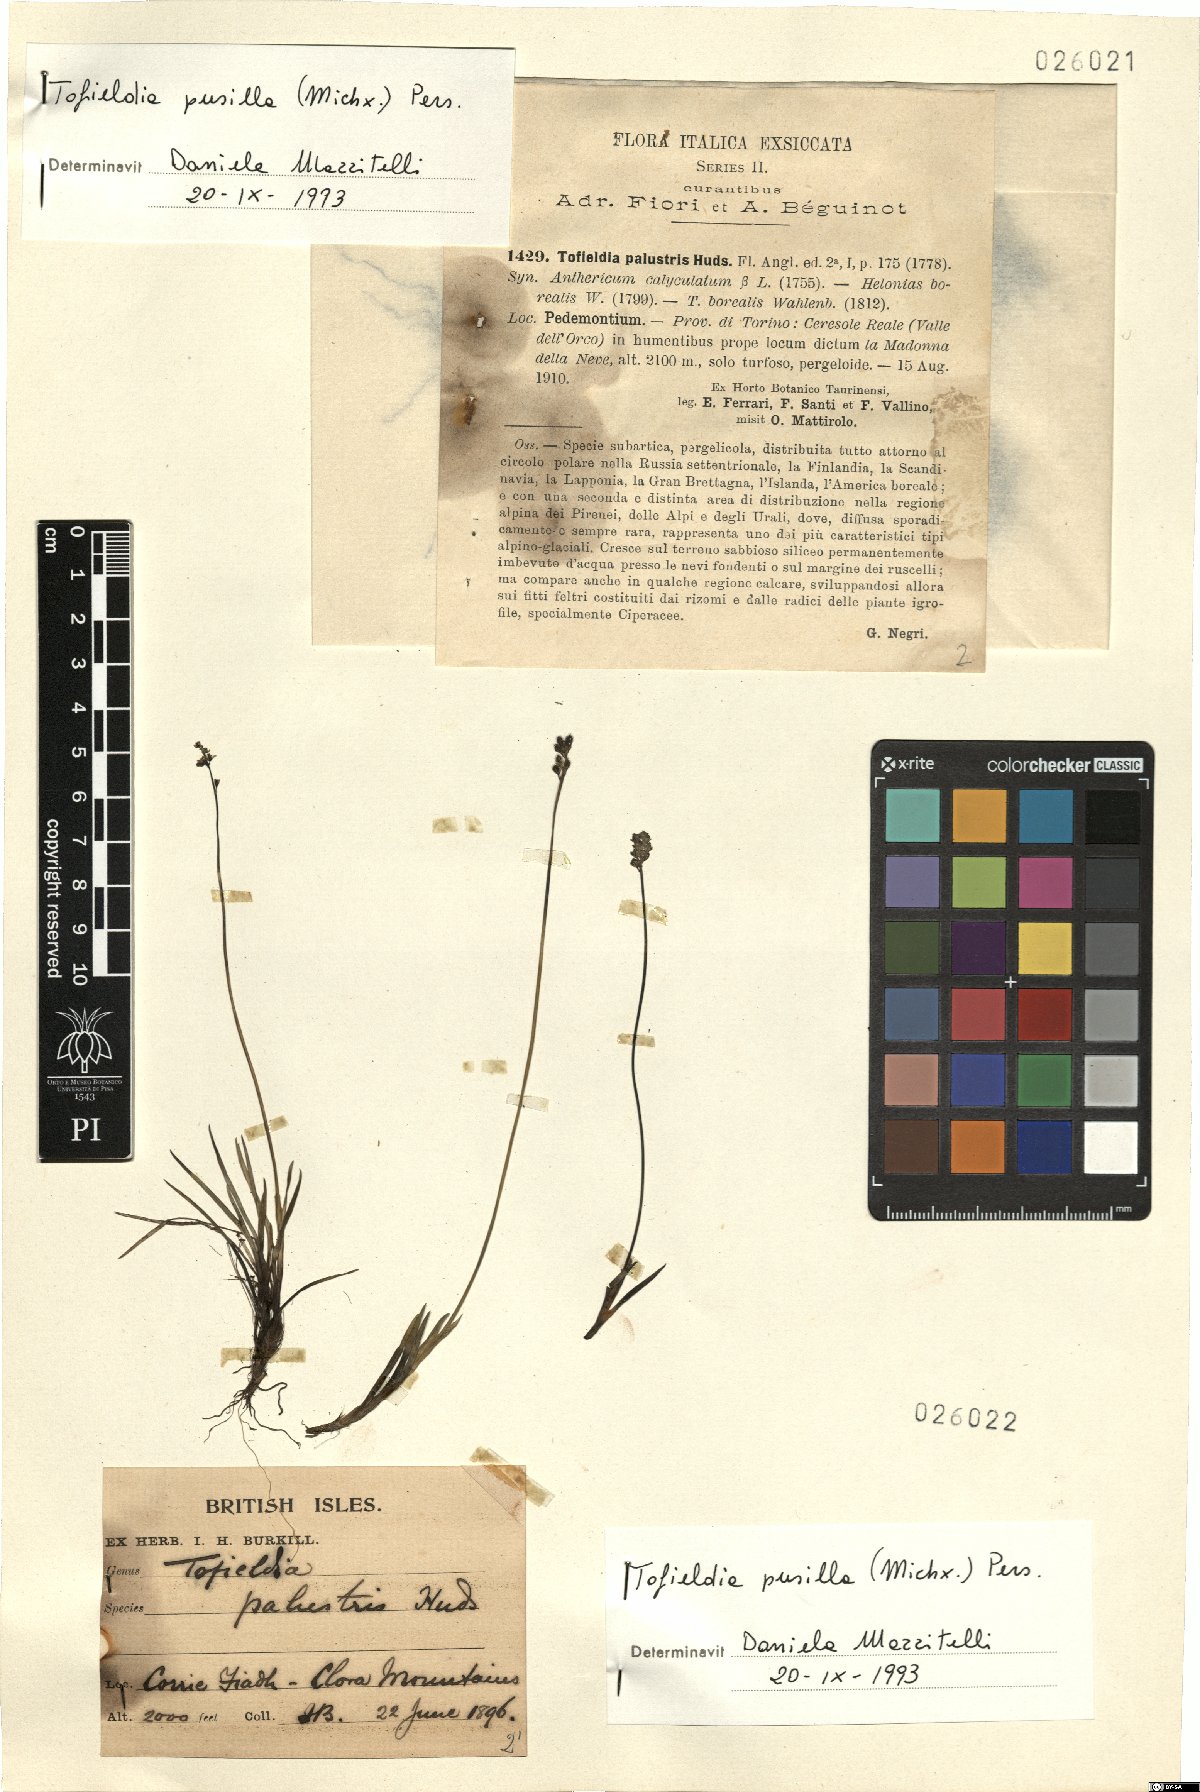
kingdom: Plantae
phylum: Tracheophyta
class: Liliopsida
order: Alismatales
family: Tofieldiaceae
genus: Tofieldia
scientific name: Tofieldia pusilla
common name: Scottish false asphodel
